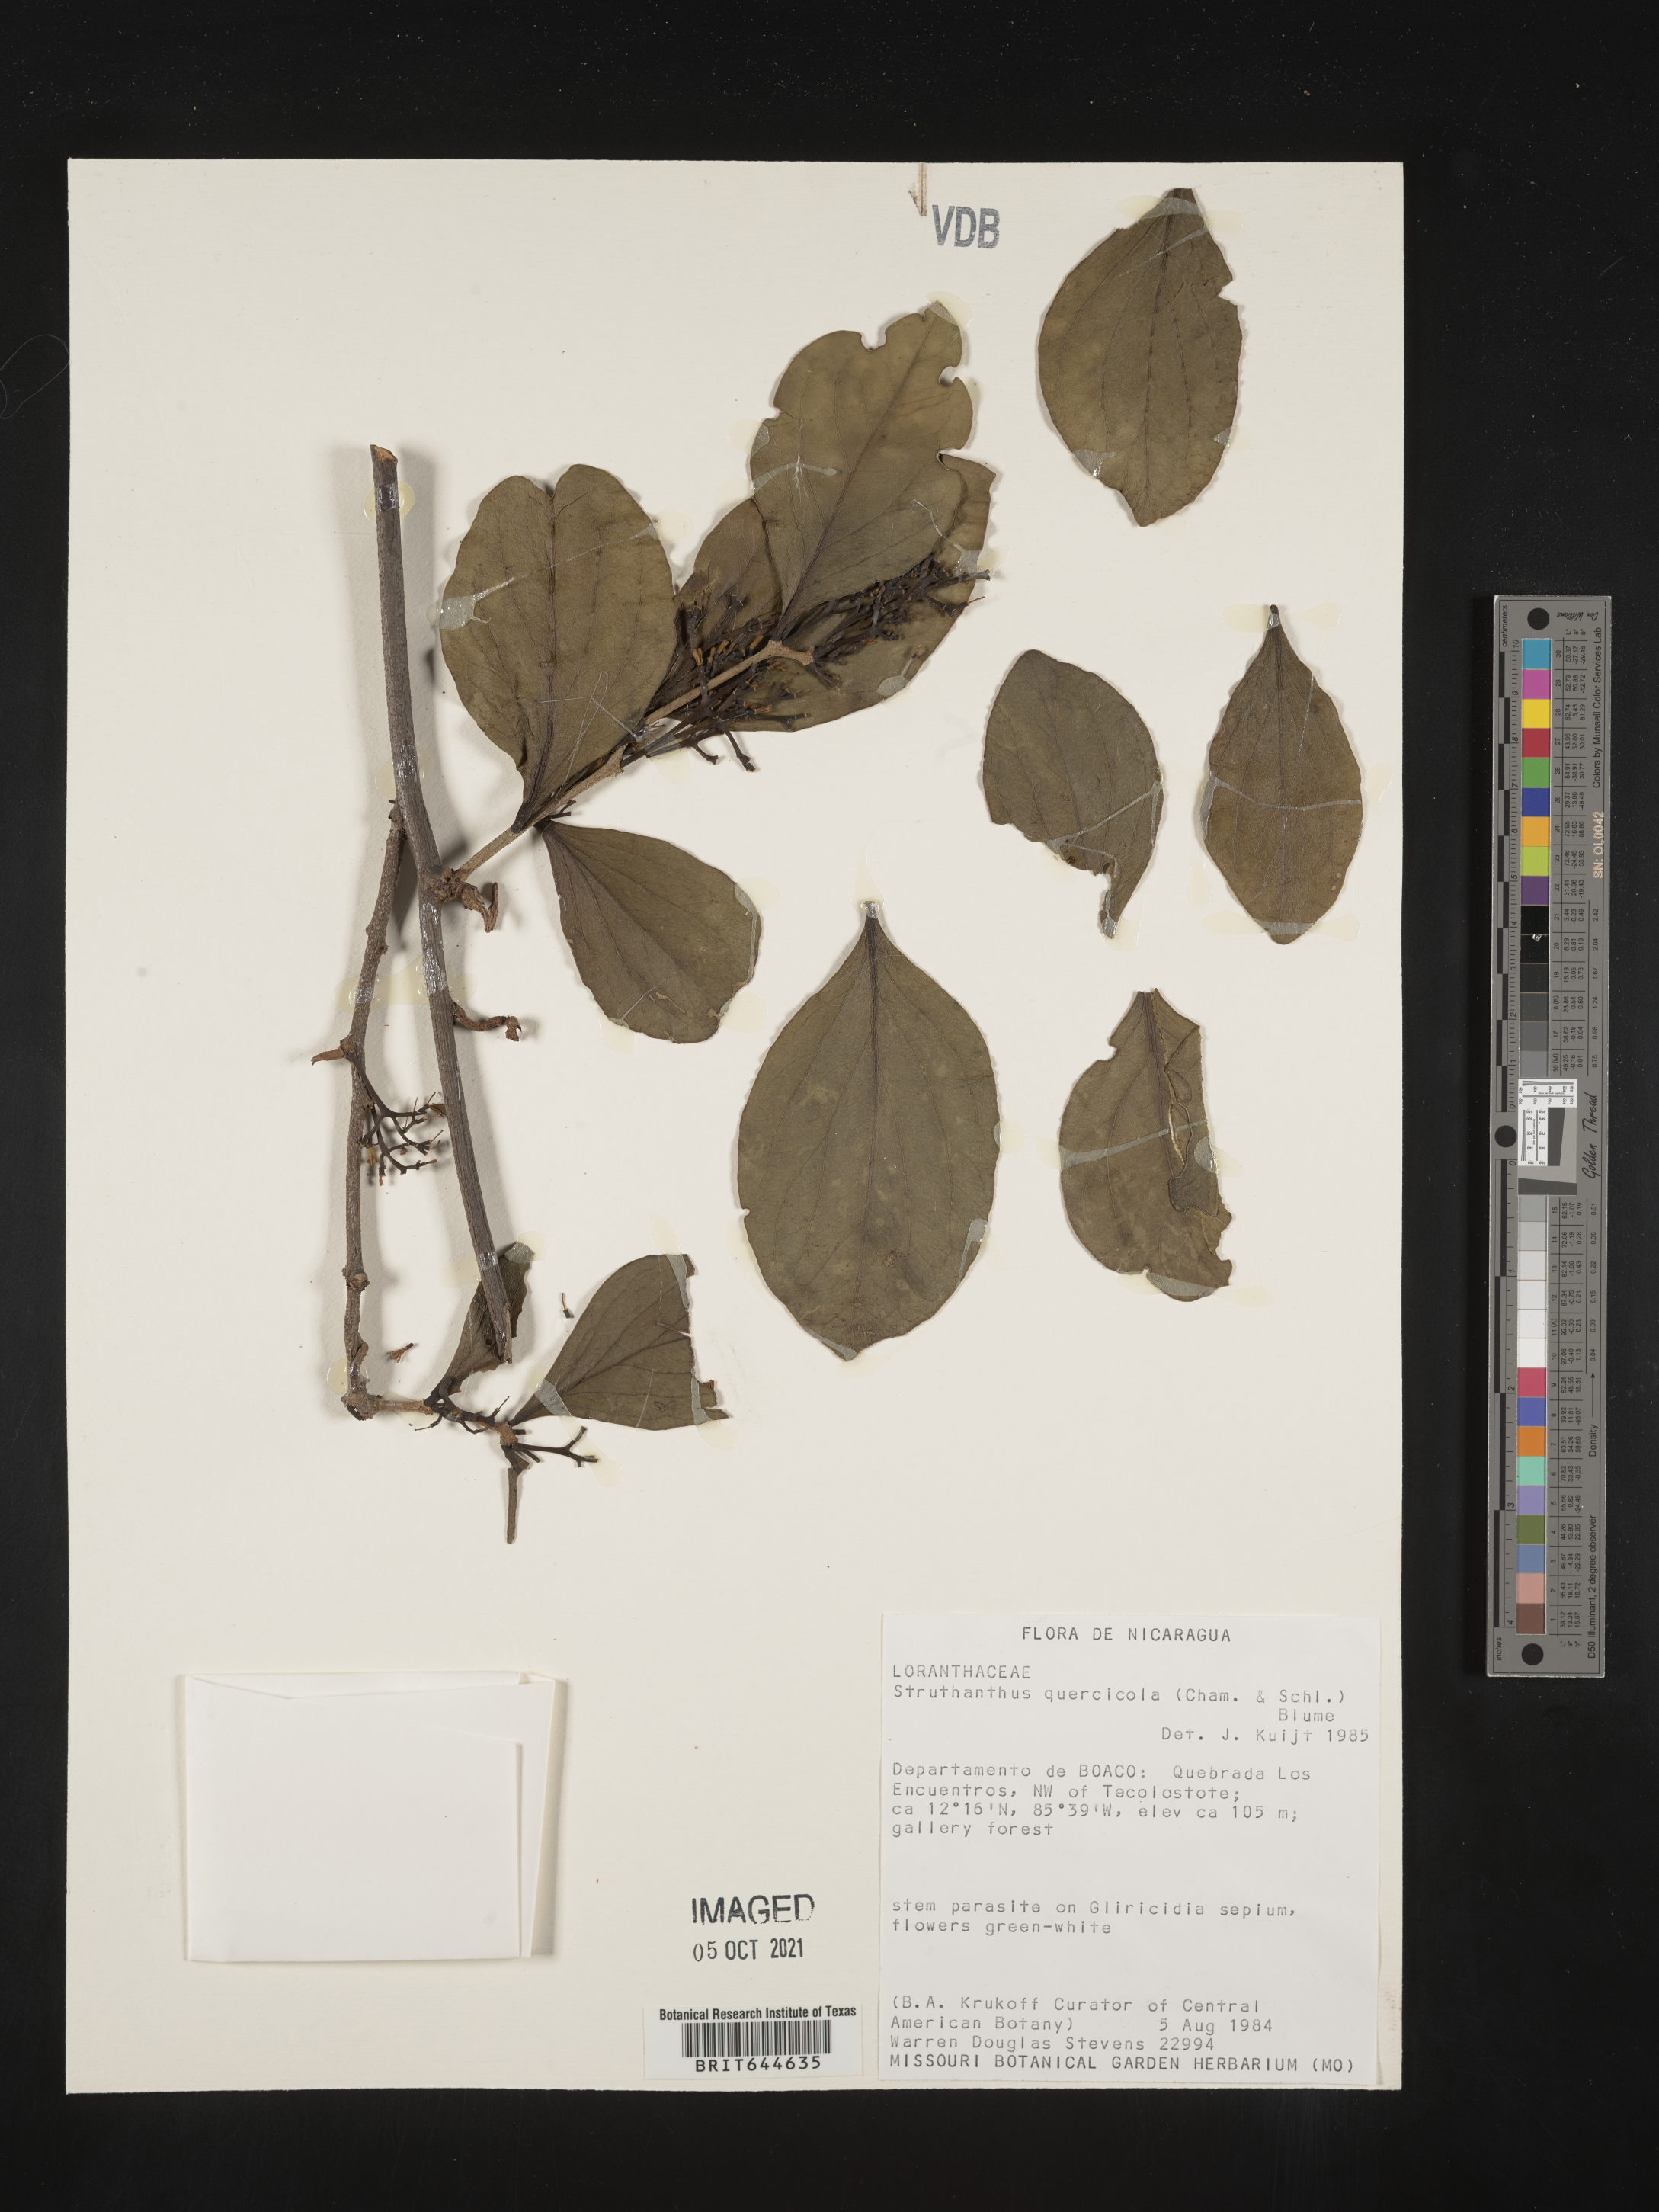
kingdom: Plantae
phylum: Tracheophyta
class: Magnoliopsida
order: Santalales
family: Viscaceae
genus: Phoradendron
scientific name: Phoradendron
